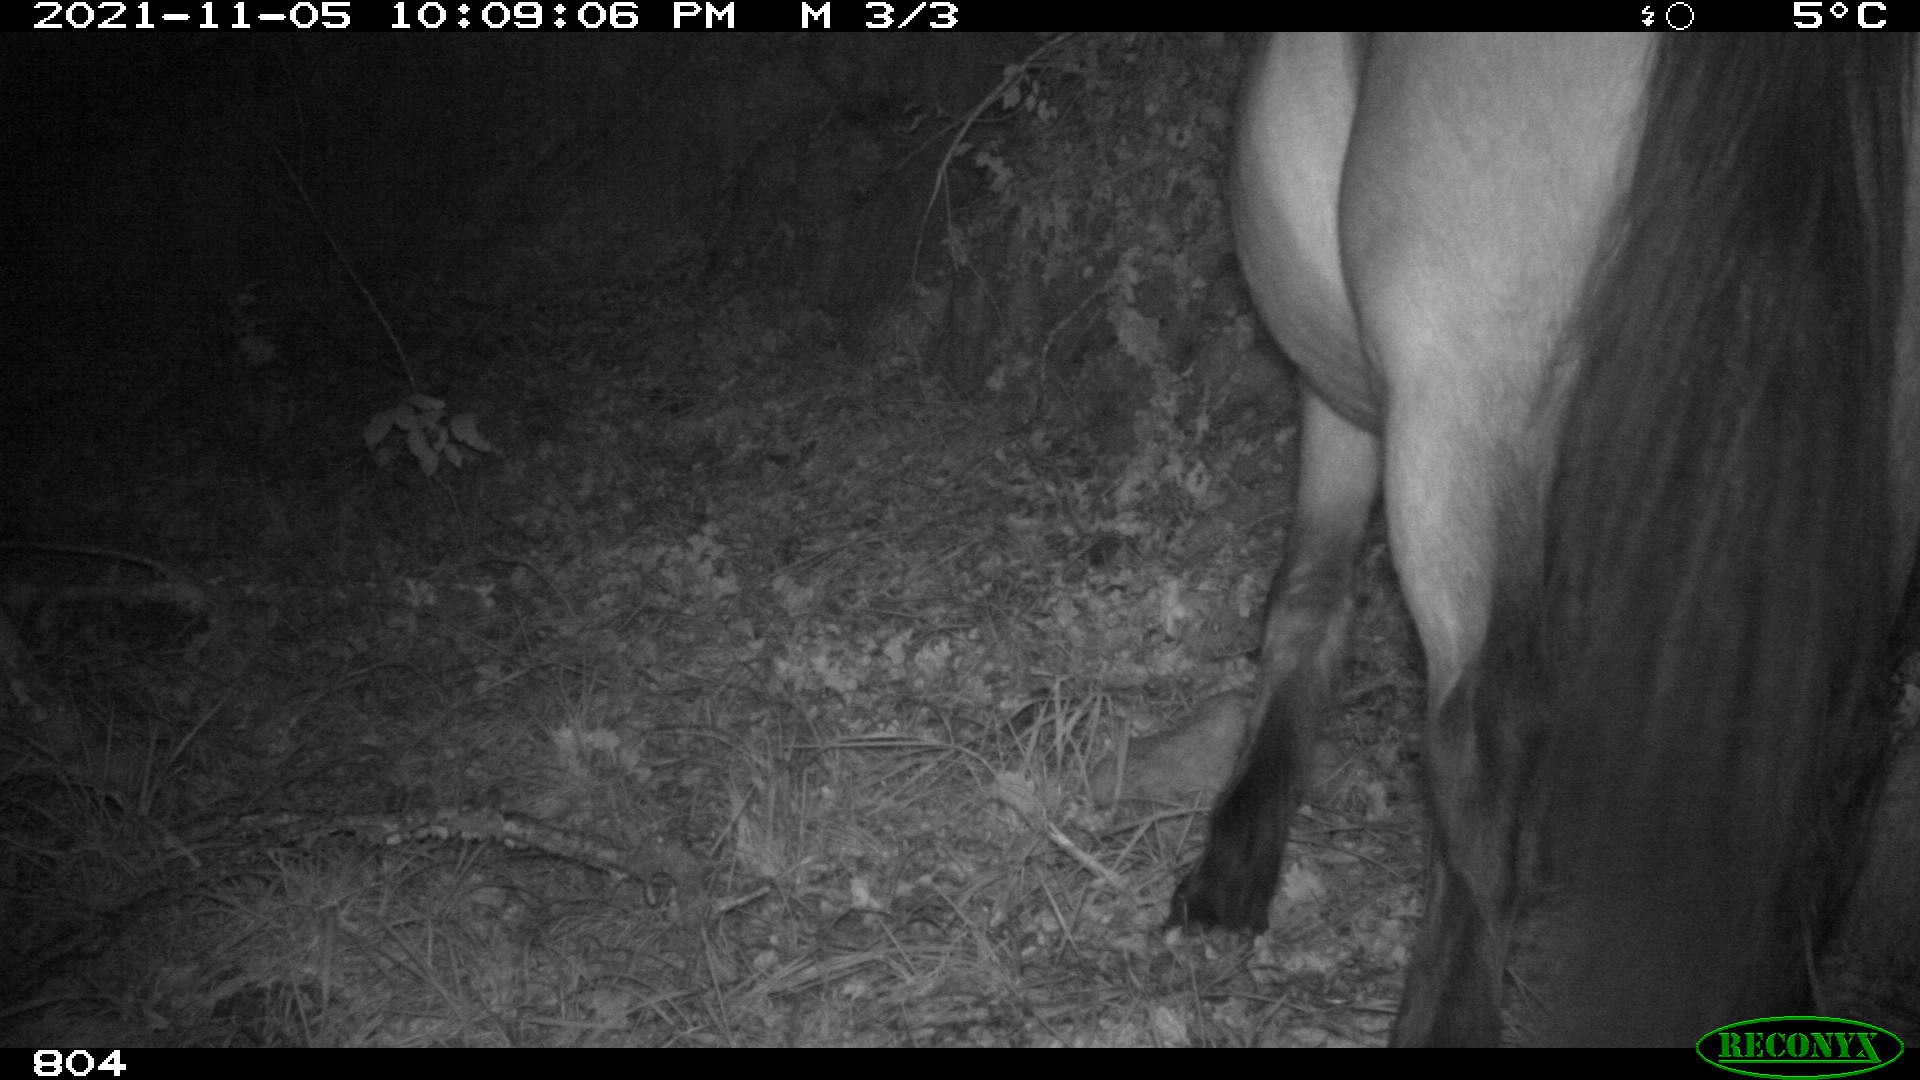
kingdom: Animalia
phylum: Chordata
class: Mammalia
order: Perissodactyla
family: Equidae
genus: Equus
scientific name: Equus caballus
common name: Horse
